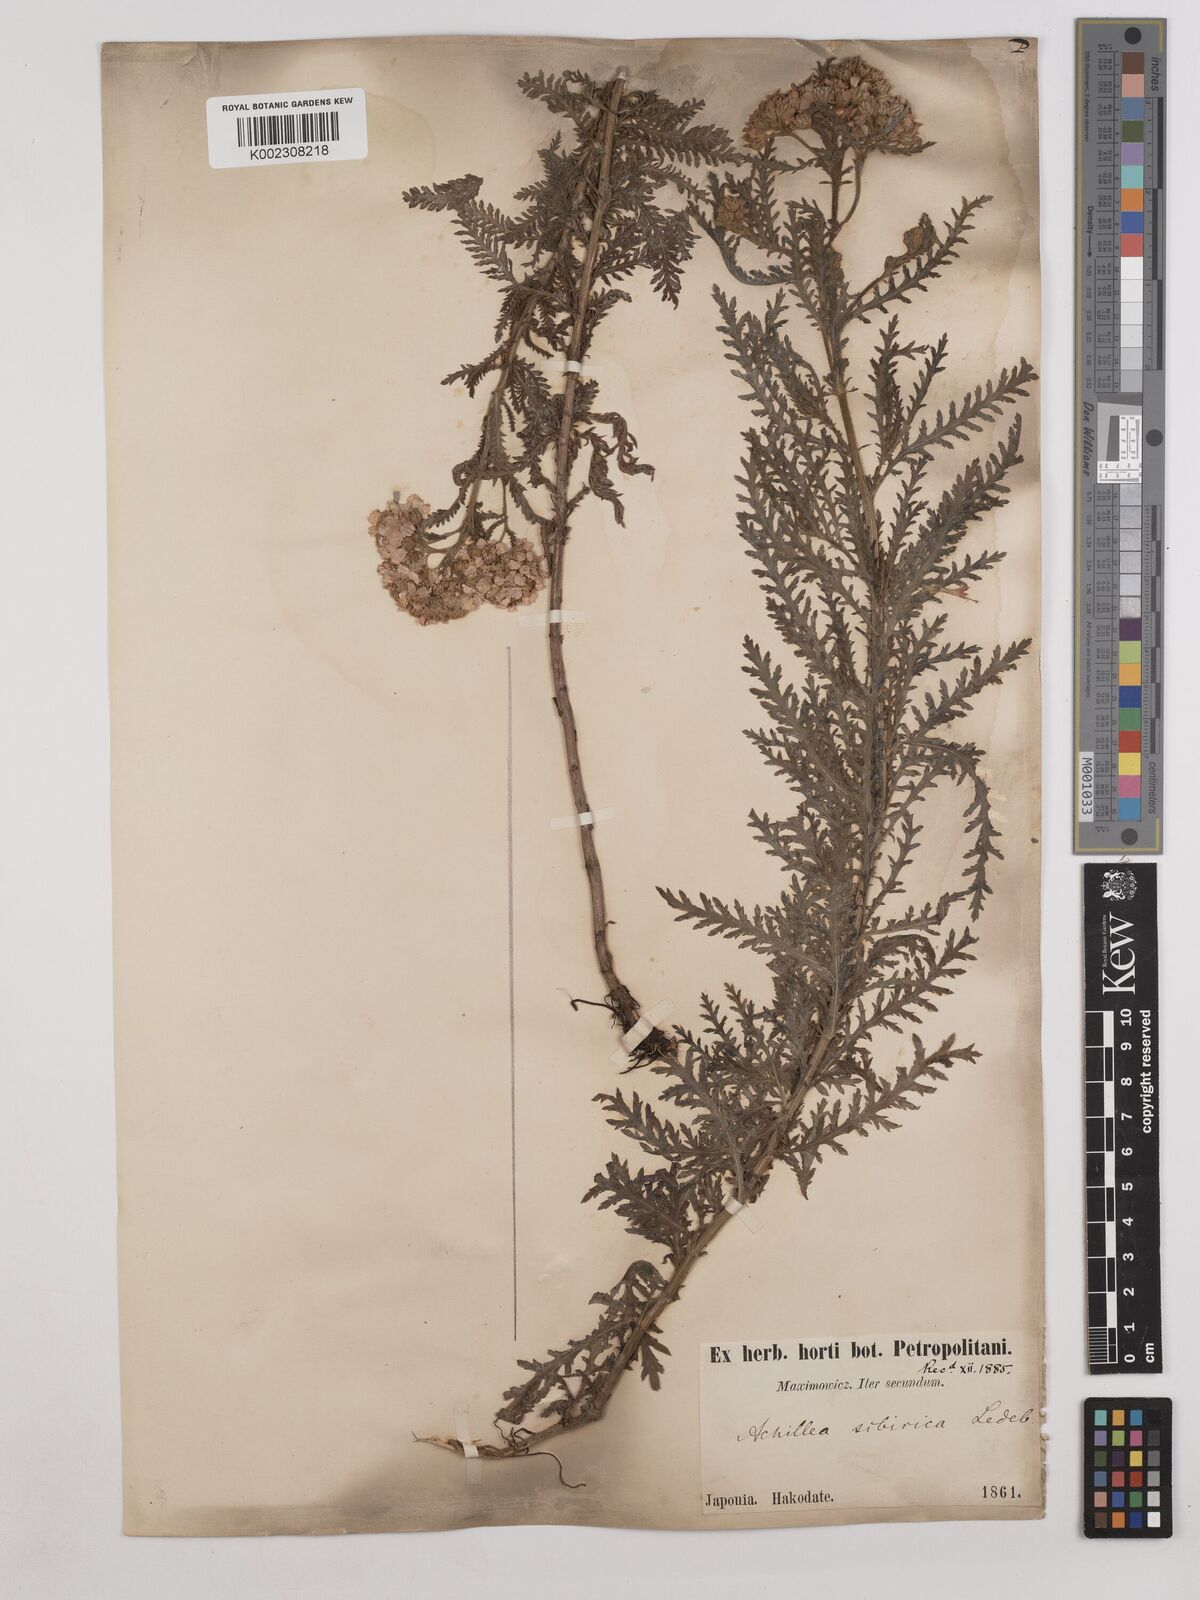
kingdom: Plantae
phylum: Tracheophyta
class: Magnoliopsida
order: Asterales
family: Asteraceae
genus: Achillea
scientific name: Achillea alpina
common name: Siberian yarrow
